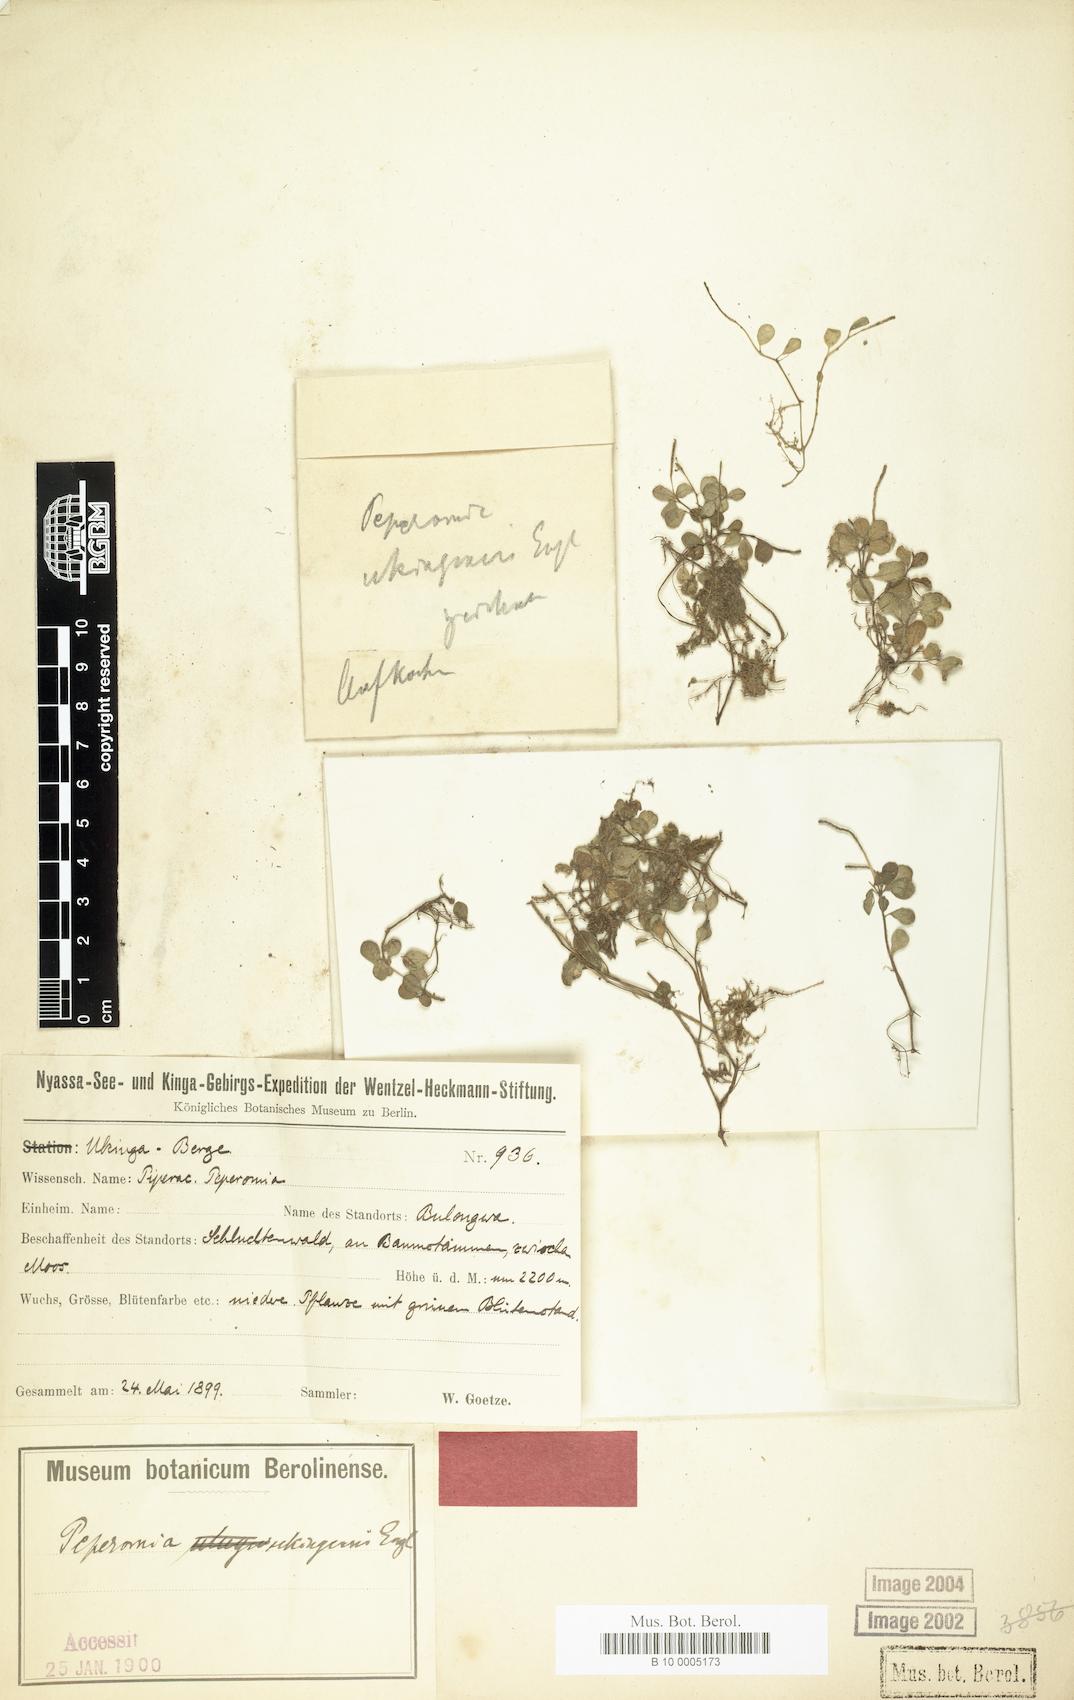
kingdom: Plantae
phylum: Tracheophyta
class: Magnoliopsida
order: Piperales
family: Piperaceae
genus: Peperomia
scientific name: Peperomia retusa
